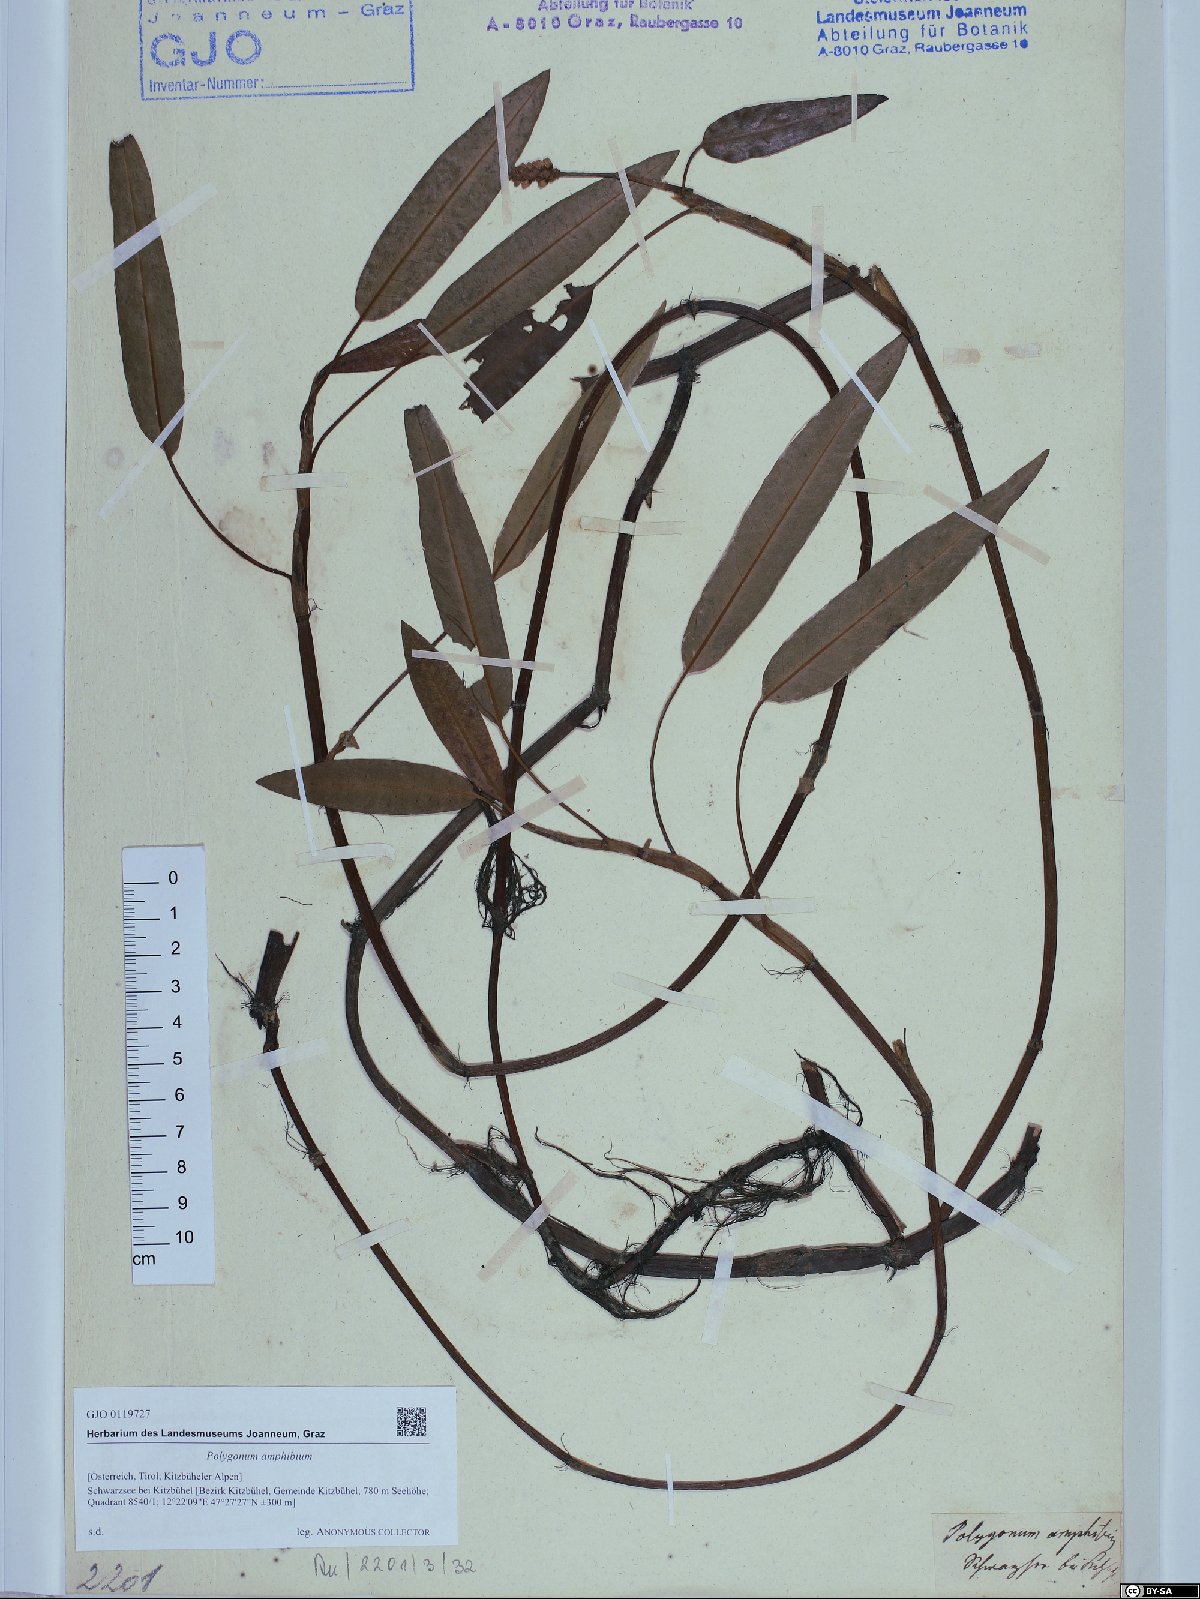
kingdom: Plantae
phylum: Tracheophyta
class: Magnoliopsida
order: Caryophyllales
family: Polygonaceae
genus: Persicaria
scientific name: Persicaria amphibia
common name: Amphibious bistort
